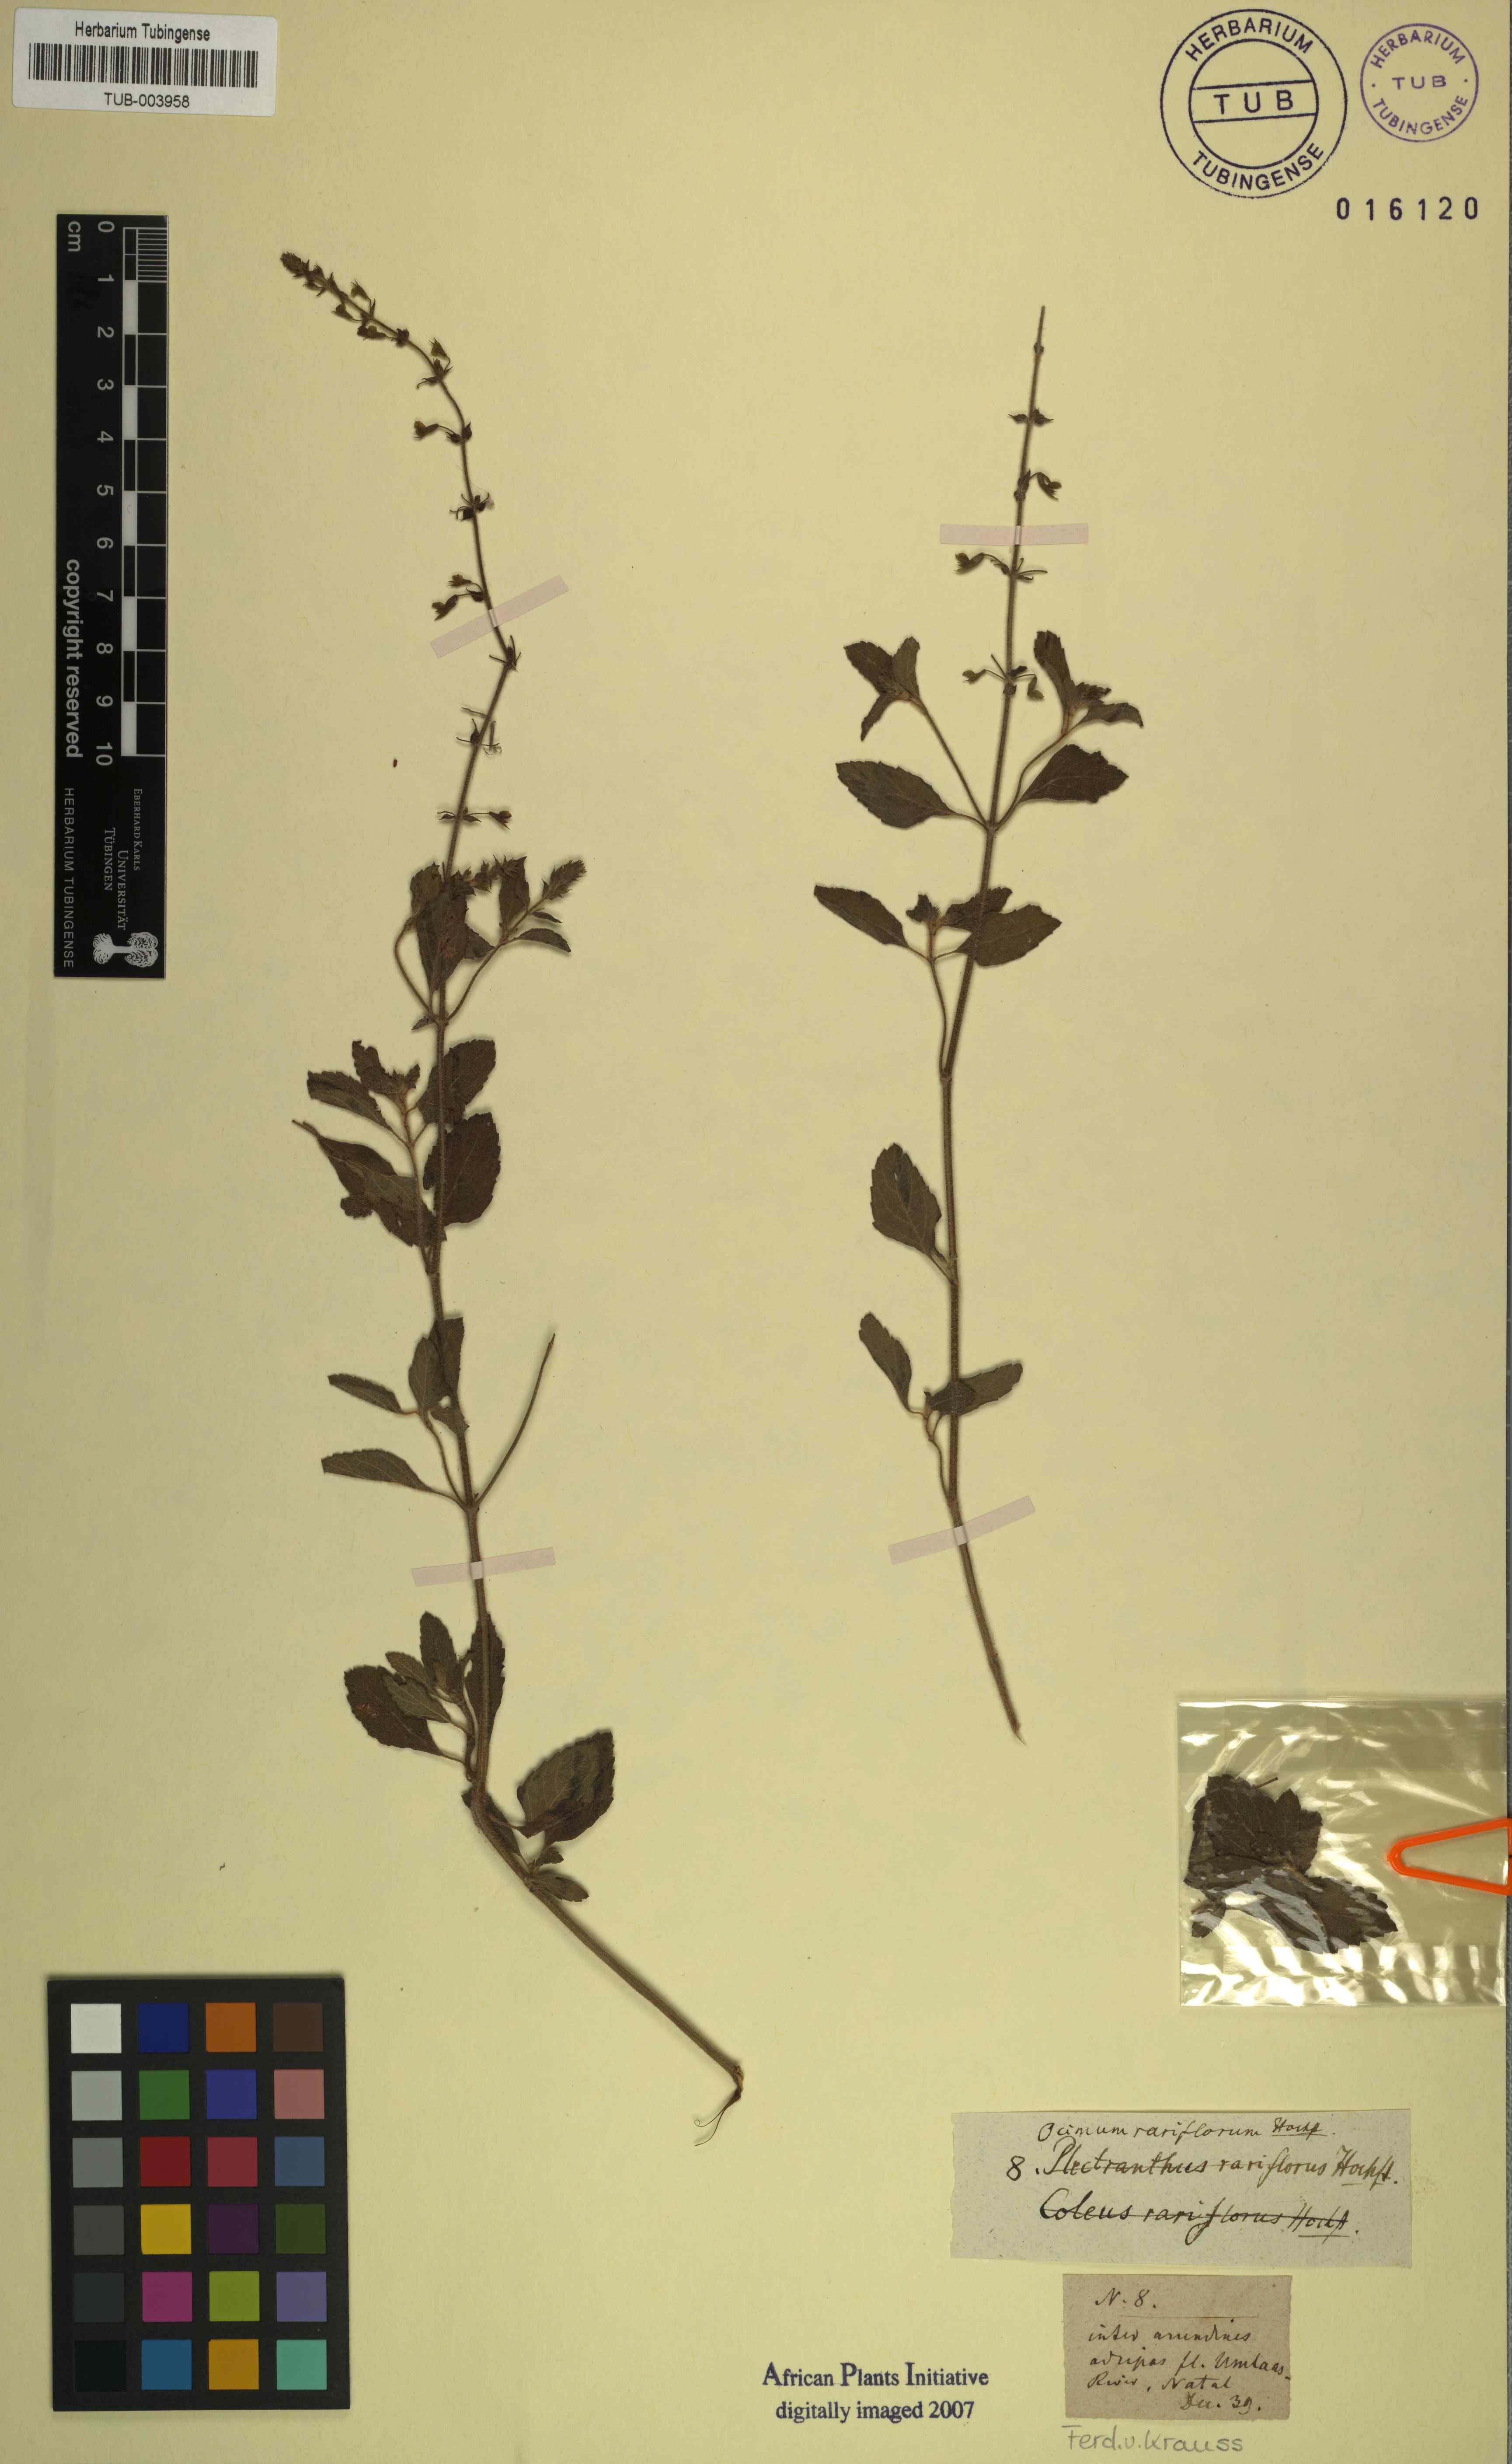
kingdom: Plantae
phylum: Tracheophyta
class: Magnoliopsida
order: Lamiales
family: Lamiaceae
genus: Endostemon
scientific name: Endostemon obtusifolius
